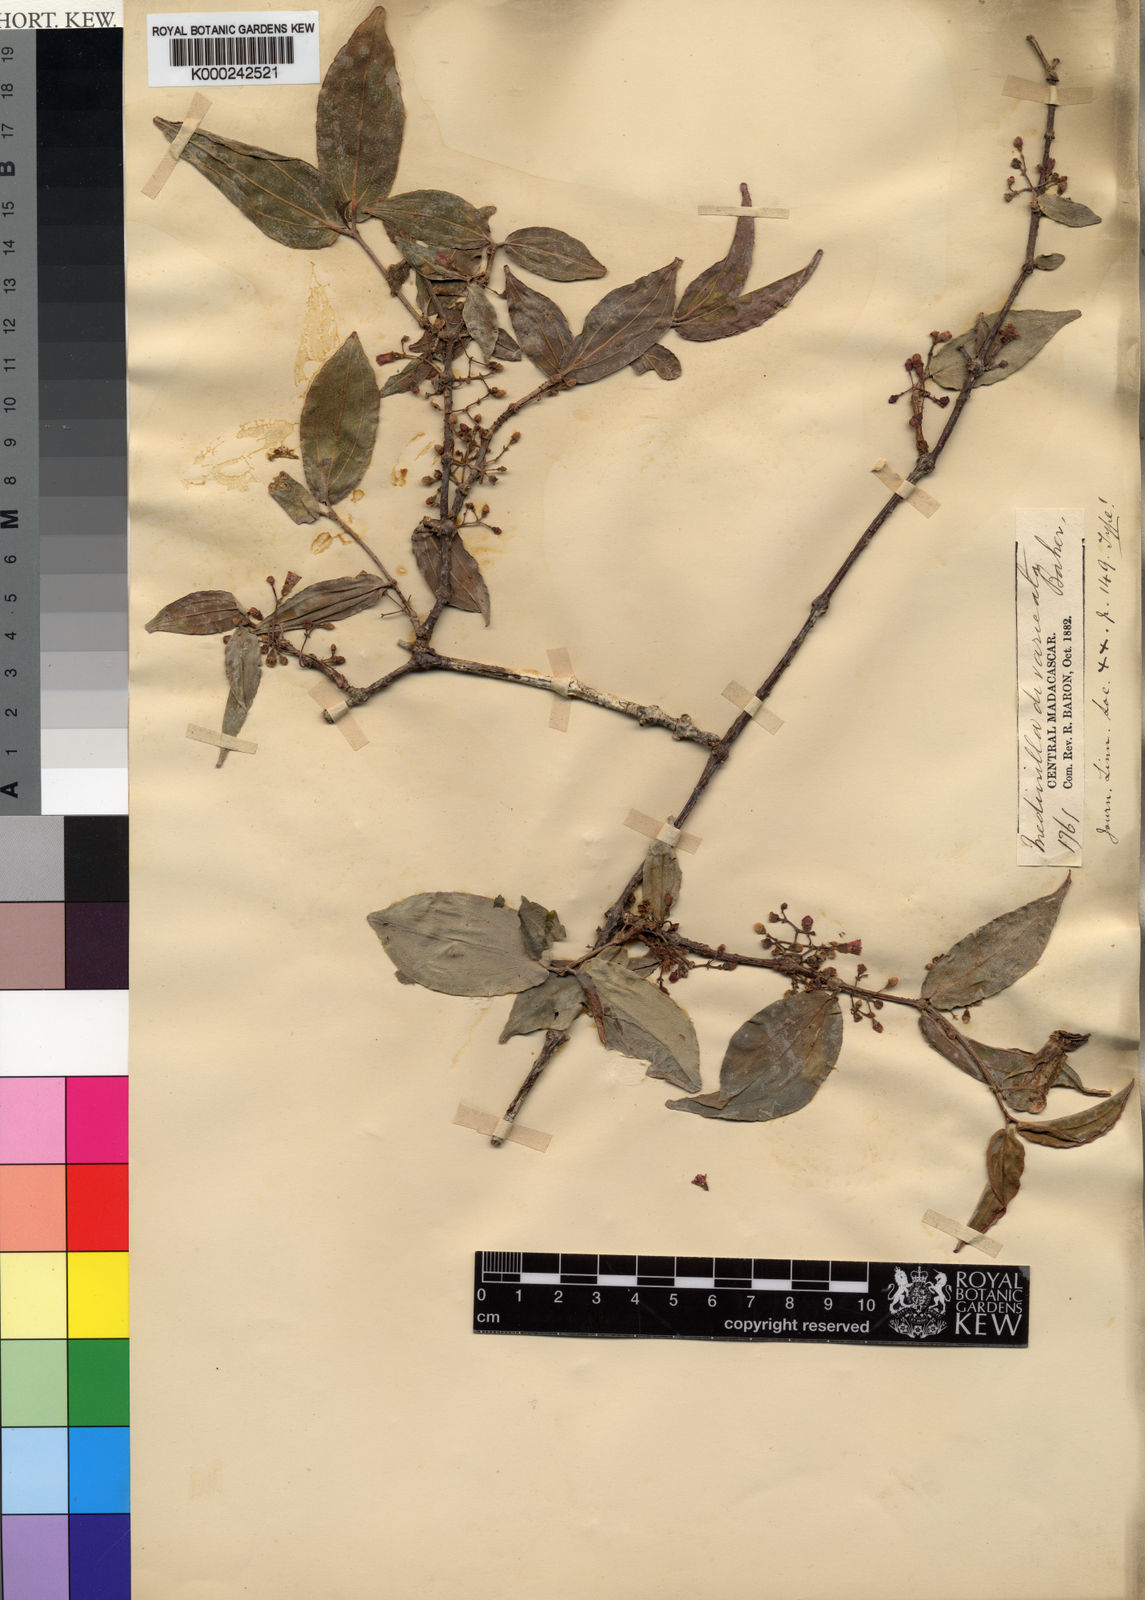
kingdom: Plantae
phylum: Tracheophyta
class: Magnoliopsida
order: Myrtales
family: Melastomataceae
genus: Medinilla
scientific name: Medinilla divaricata
